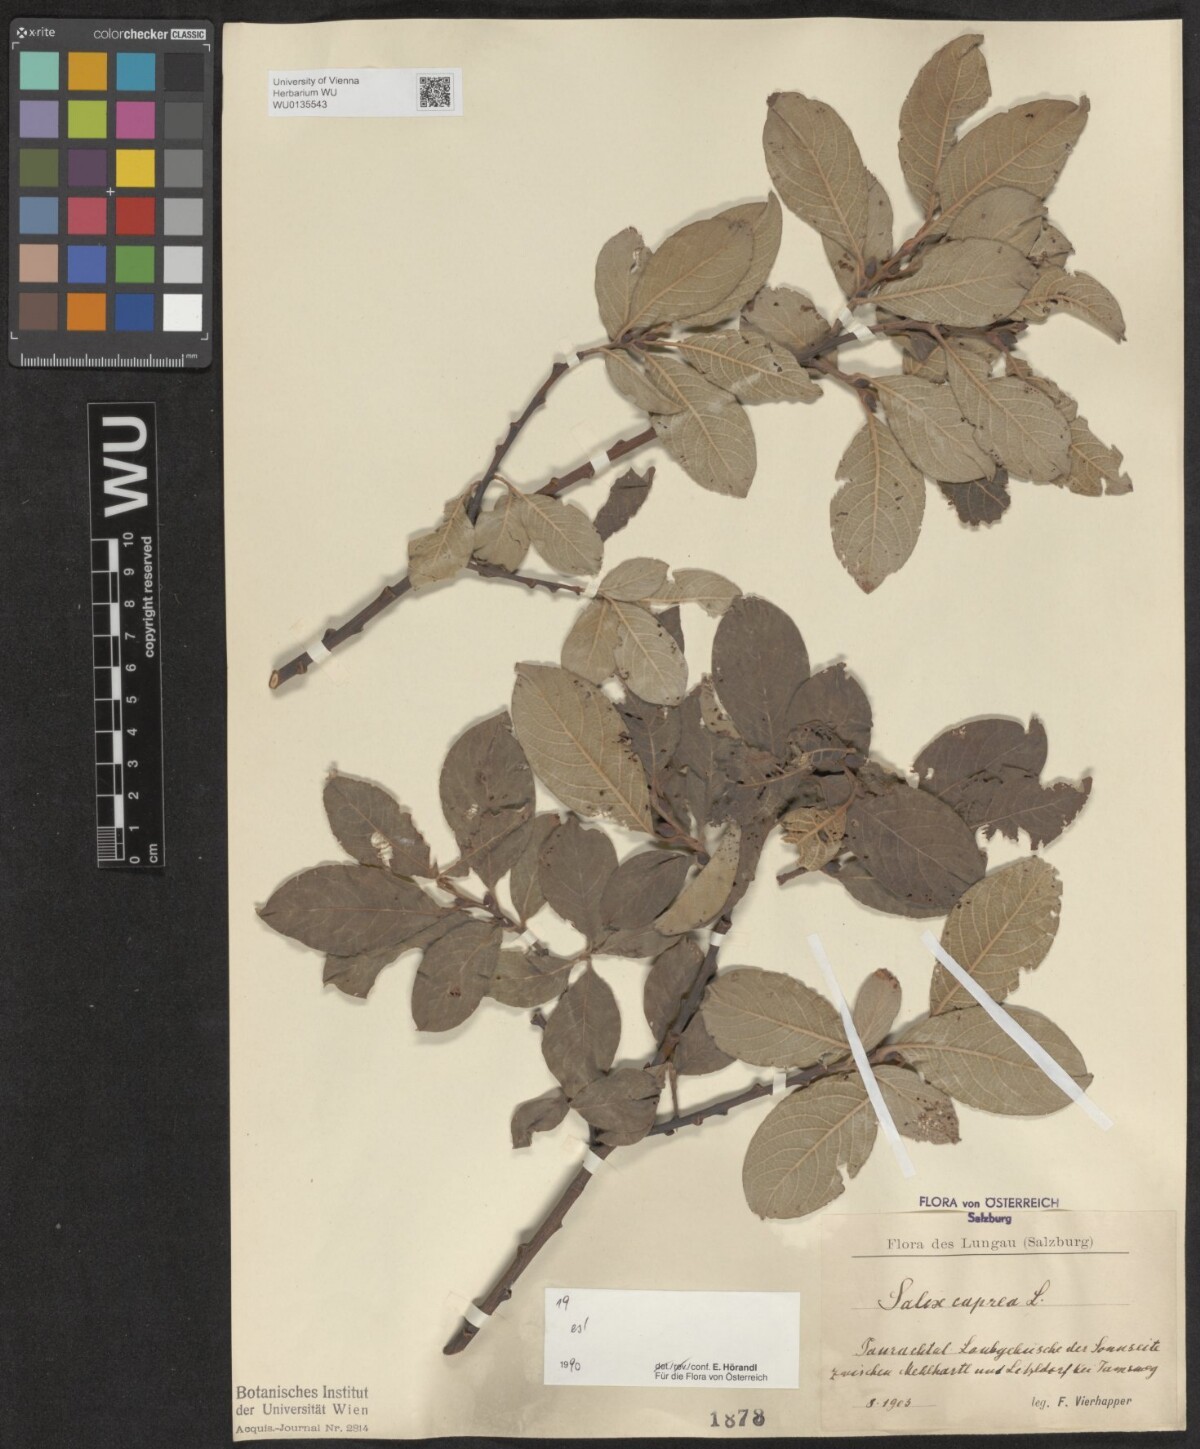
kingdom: Plantae
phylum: Tracheophyta
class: Magnoliopsida
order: Malpighiales
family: Salicaceae
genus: Salix
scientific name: Salix caprea
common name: Goat willow
